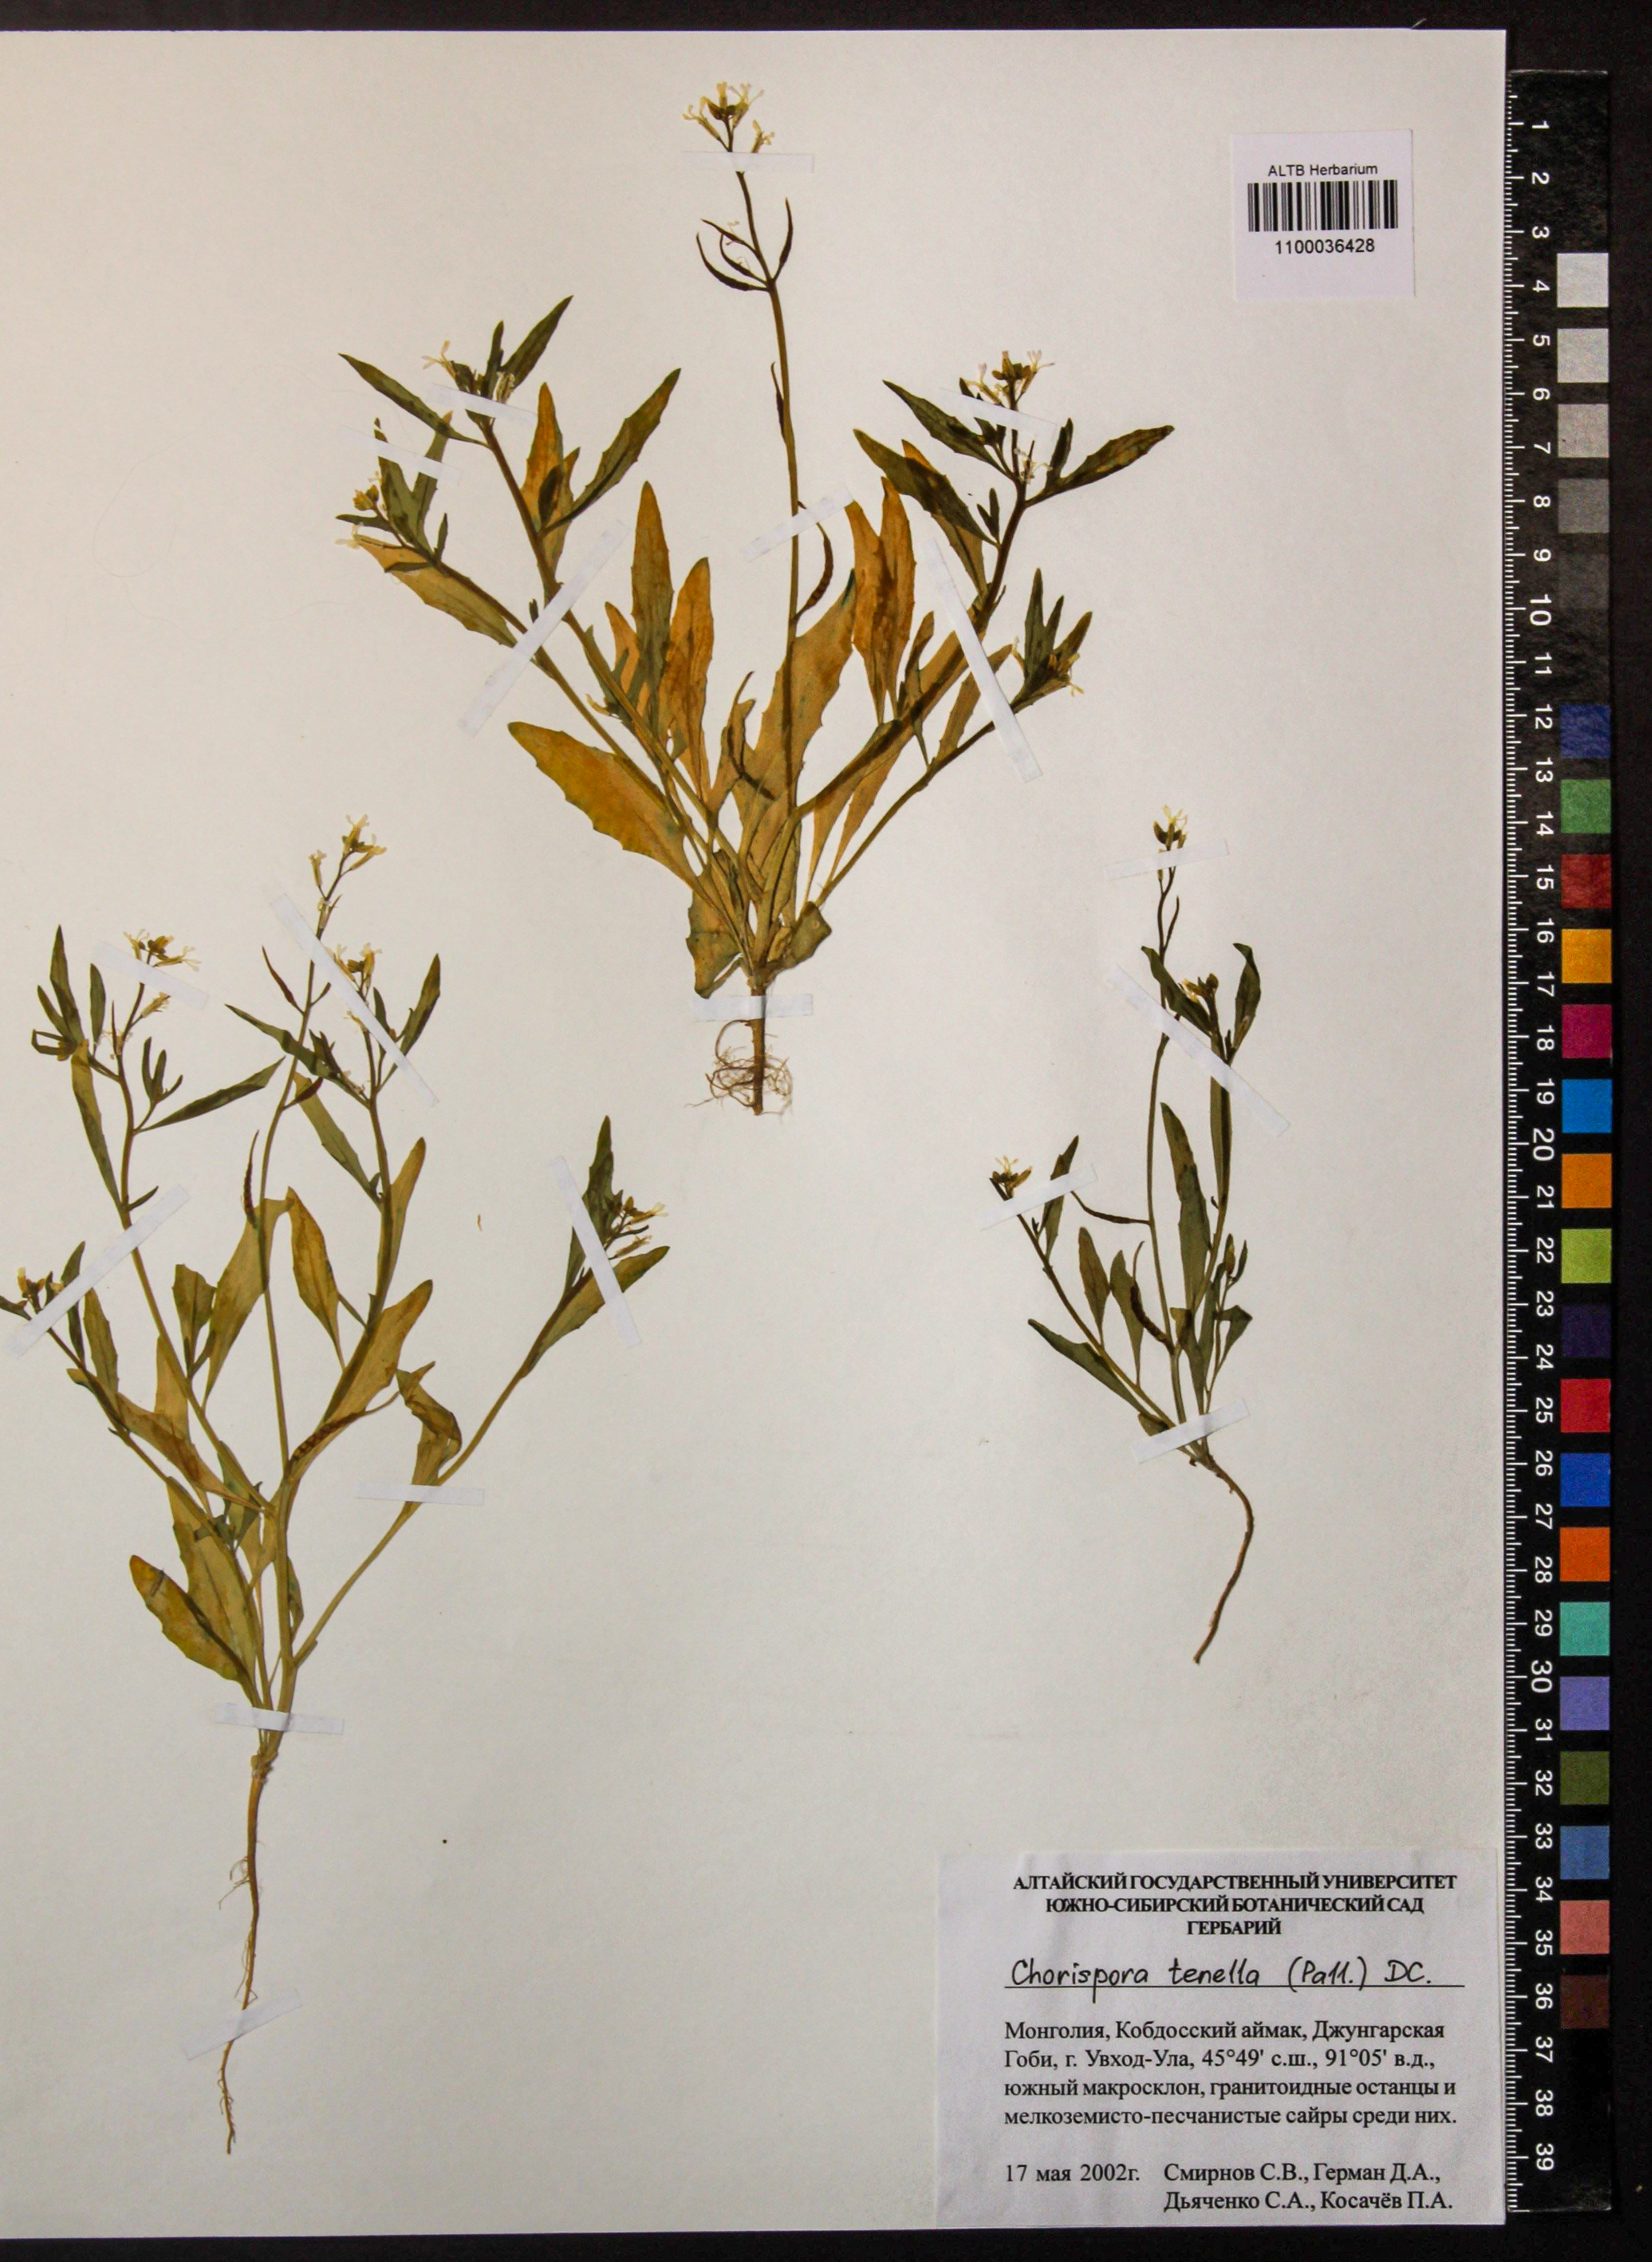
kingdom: Plantae
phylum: Tracheophyta
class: Magnoliopsida
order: Brassicales
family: Brassicaceae
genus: Chorispora
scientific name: Chorispora tenella
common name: Crossflower
